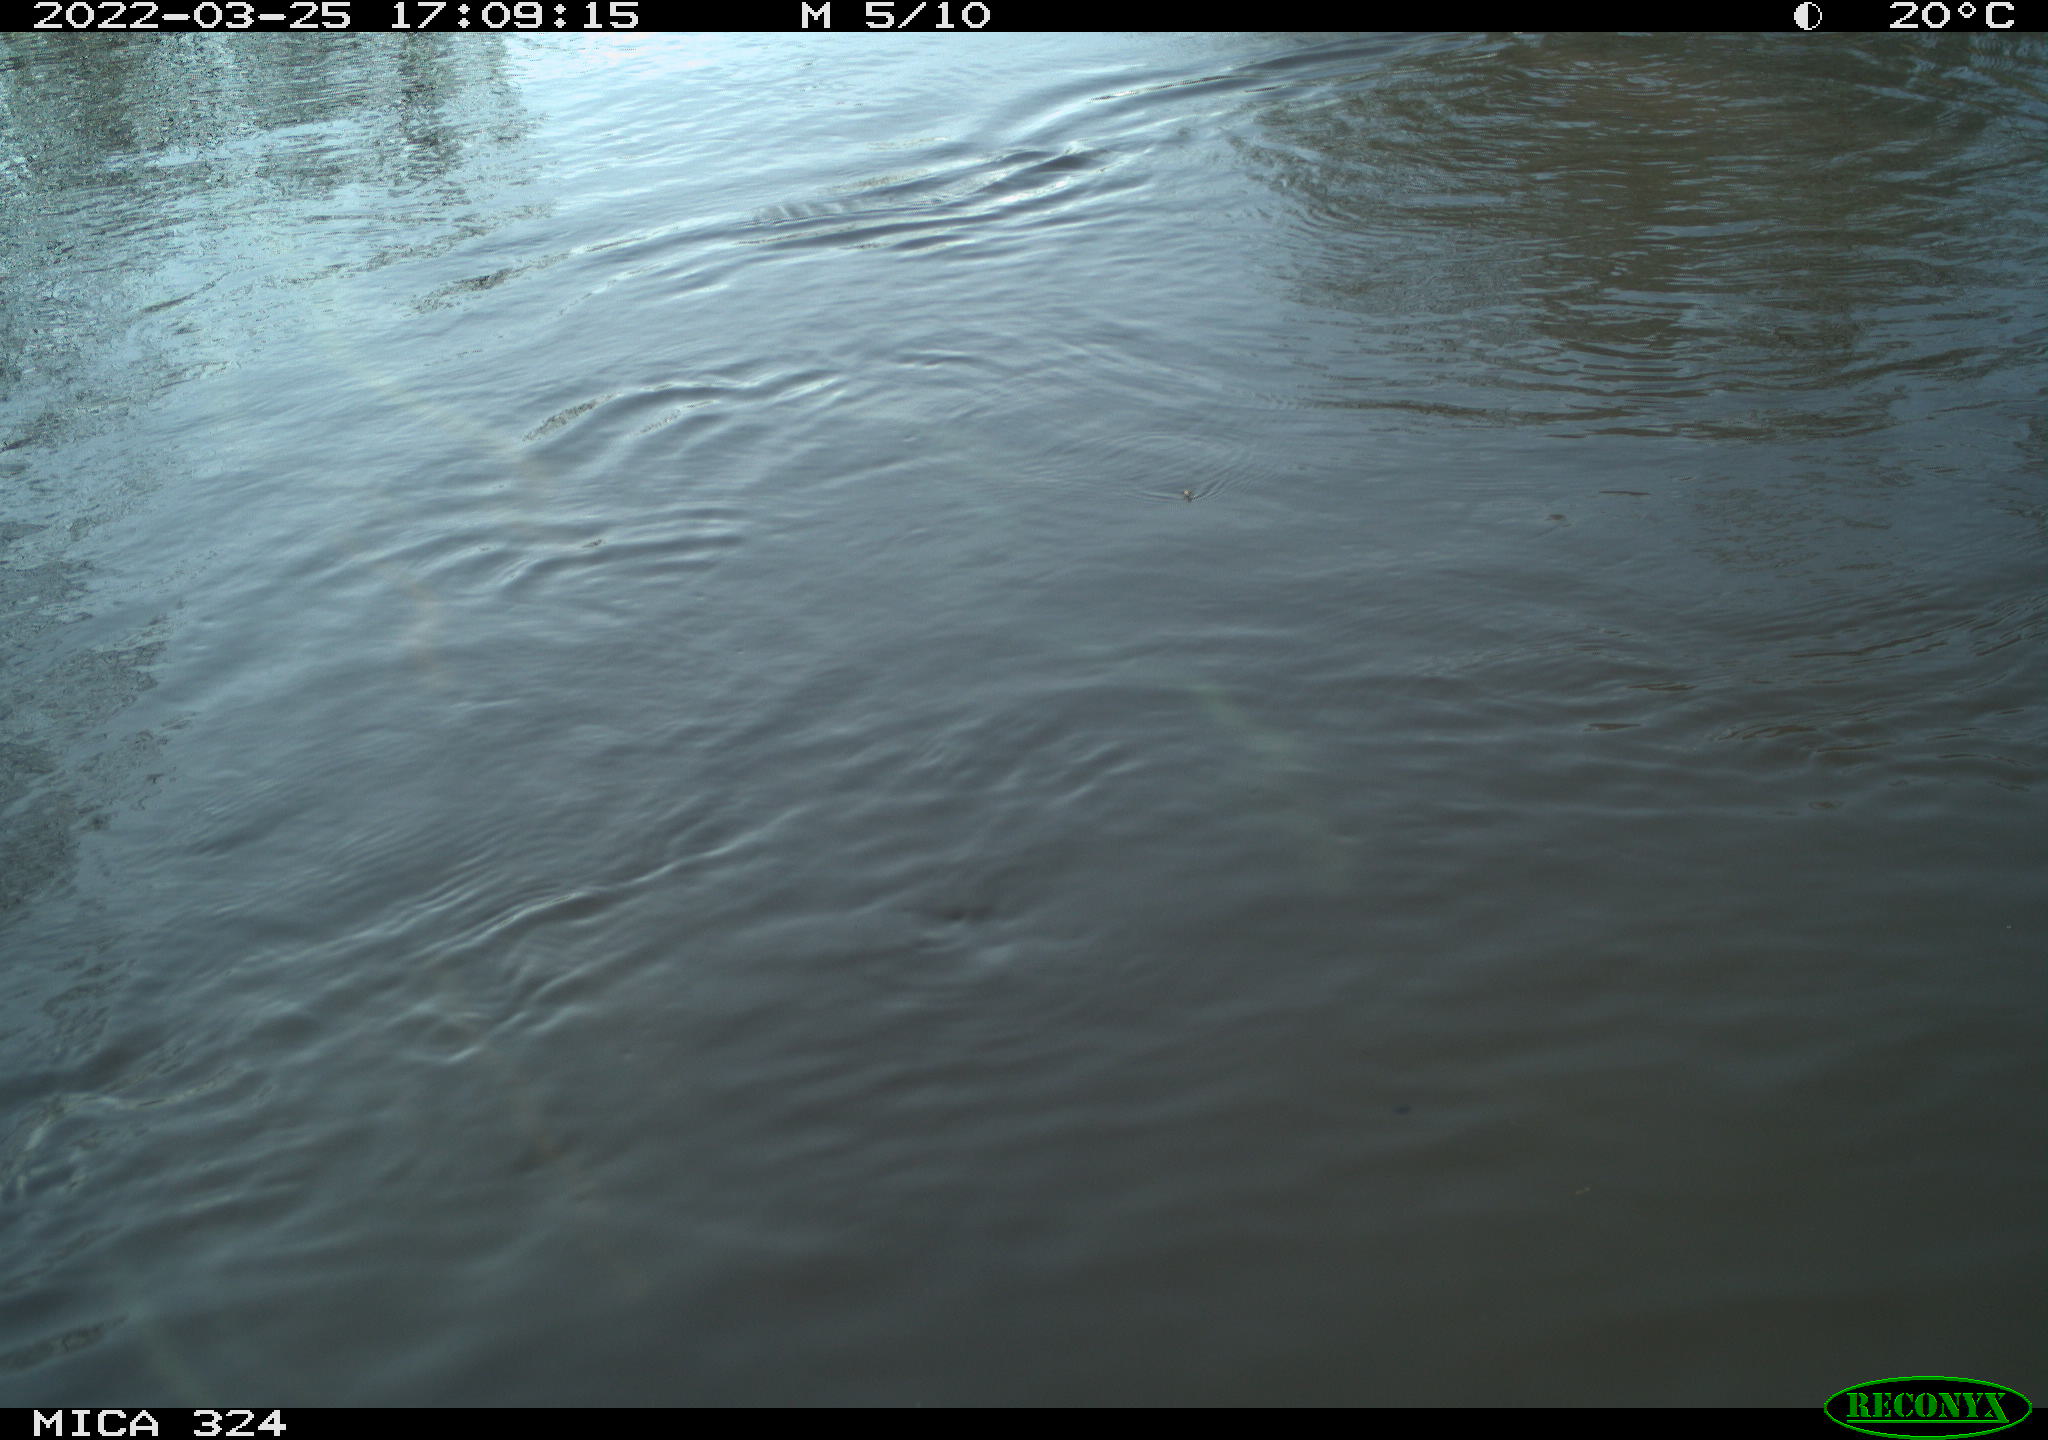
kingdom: Animalia
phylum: Chordata
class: Mammalia
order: Rodentia
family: Cricetidae
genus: Ondatra
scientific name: Ondatra zibethicus
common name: Muskrat
